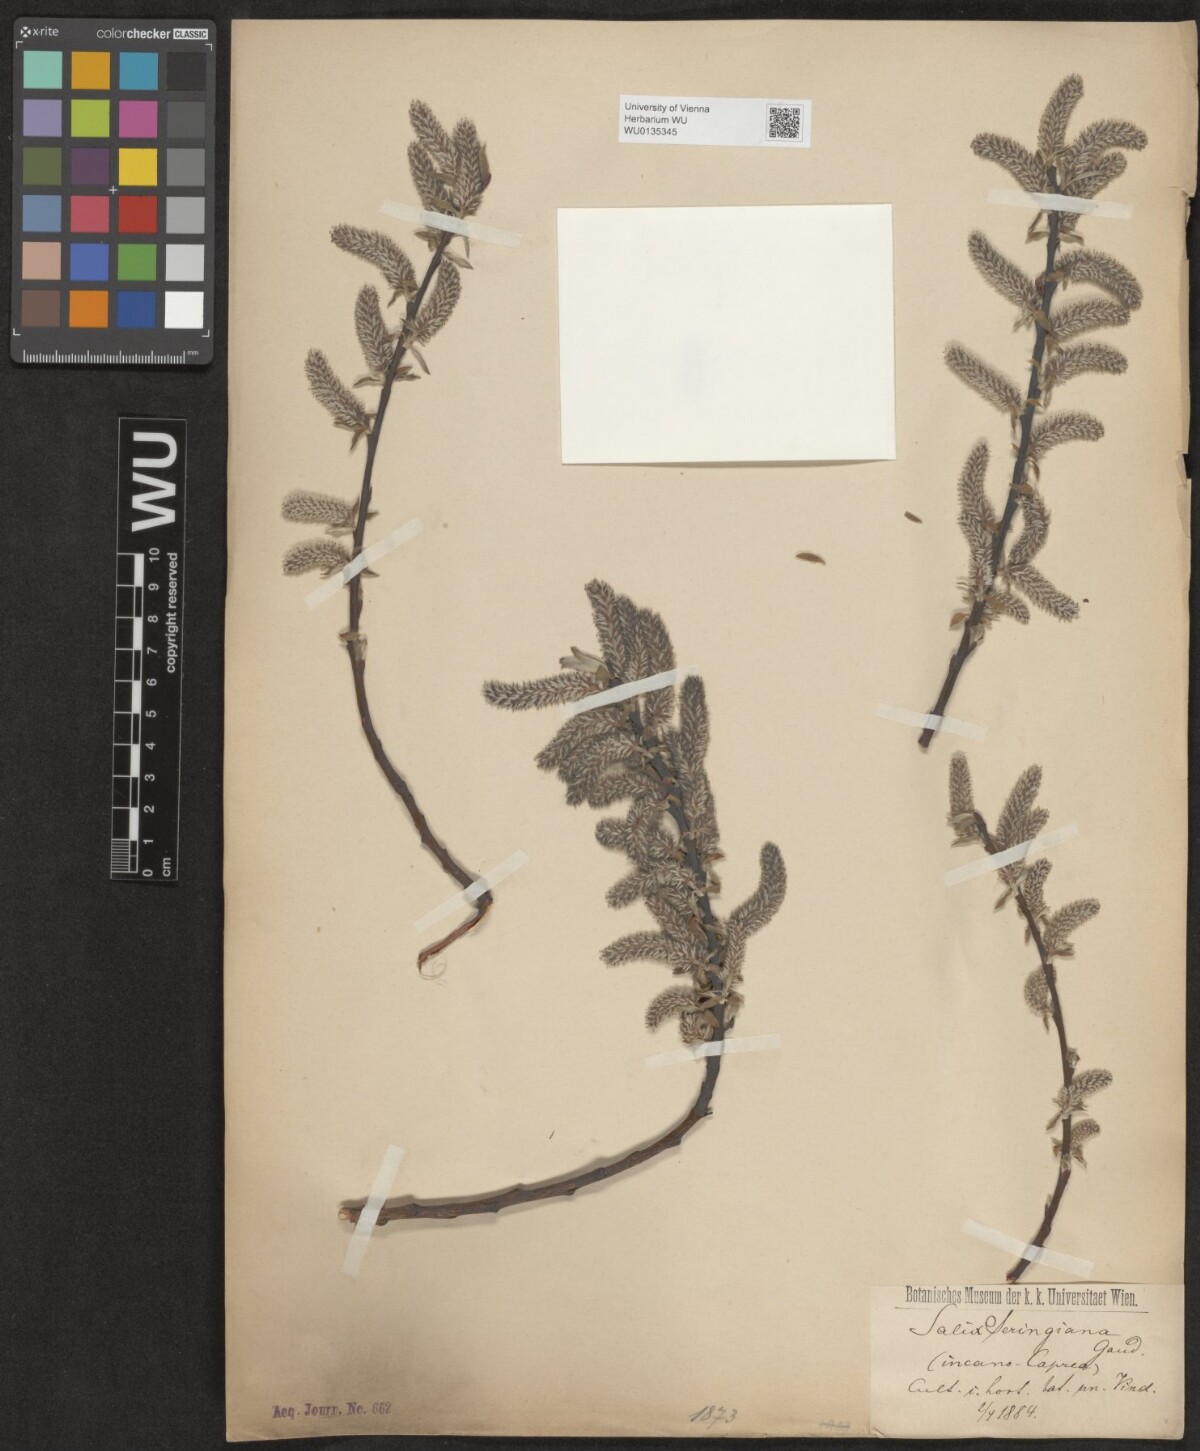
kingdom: Plantae
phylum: Tracheophyta
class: Magnoliopsida
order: Malpighiales
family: Salicaceae
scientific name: Salicaceae
